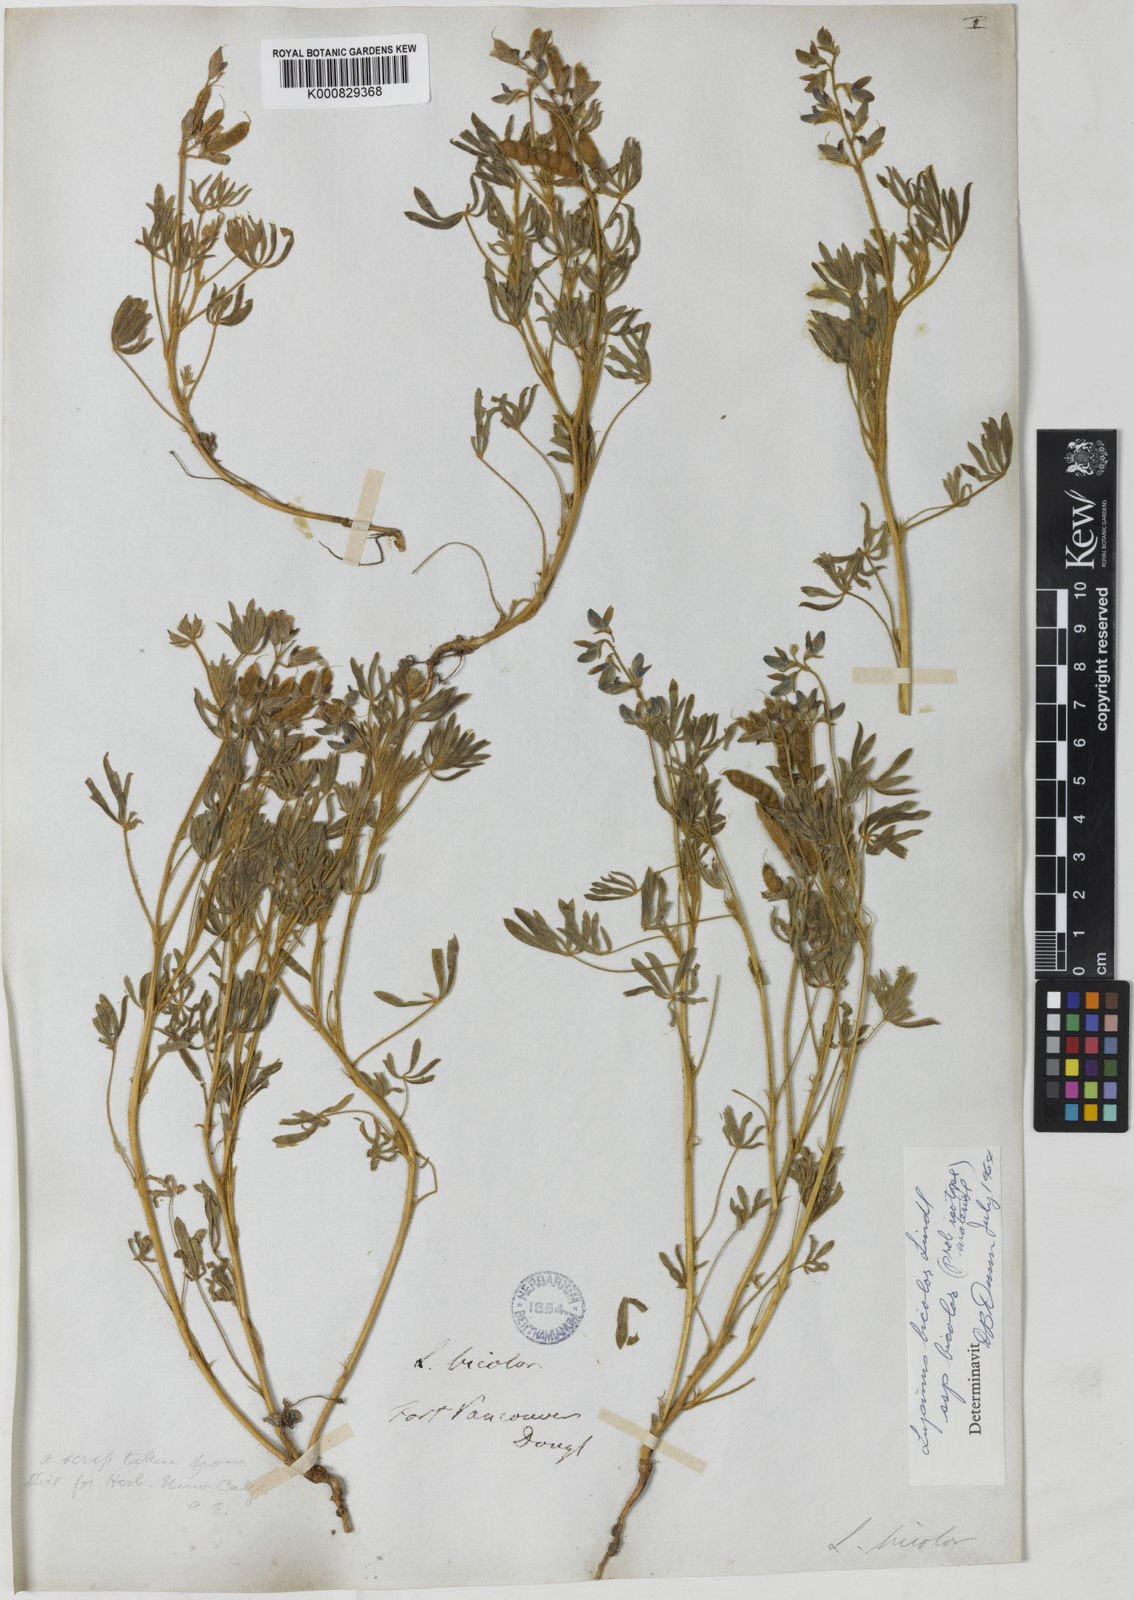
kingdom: Plantae
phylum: Tracheophyta
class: Magnoliopsida
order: Fabales
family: Fabaceae
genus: Lupinus
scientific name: Lupinus bicolor
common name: Miniature lupine
